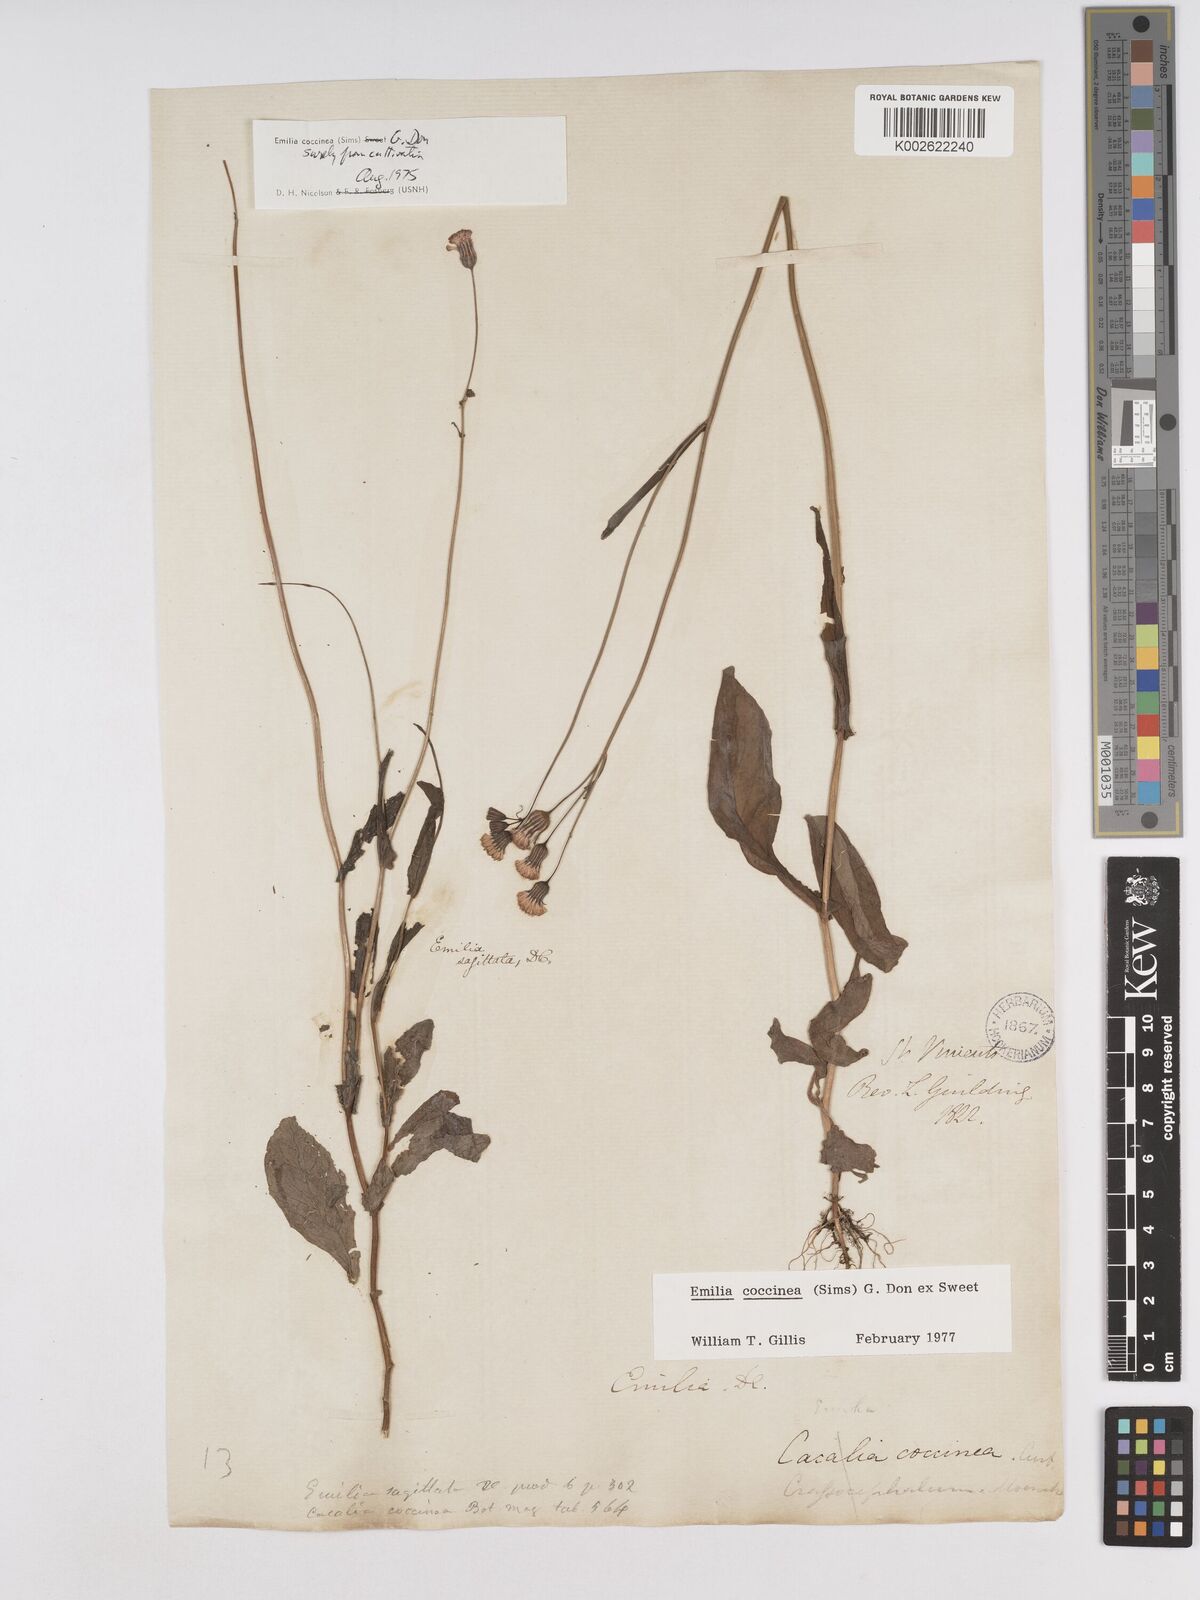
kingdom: Plantae
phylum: Tracheophyta
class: Magnoliopsida
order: Asterales
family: Asteraceae
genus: Emilia
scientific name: Emilia coccinea
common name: Scarlet tasselflower
